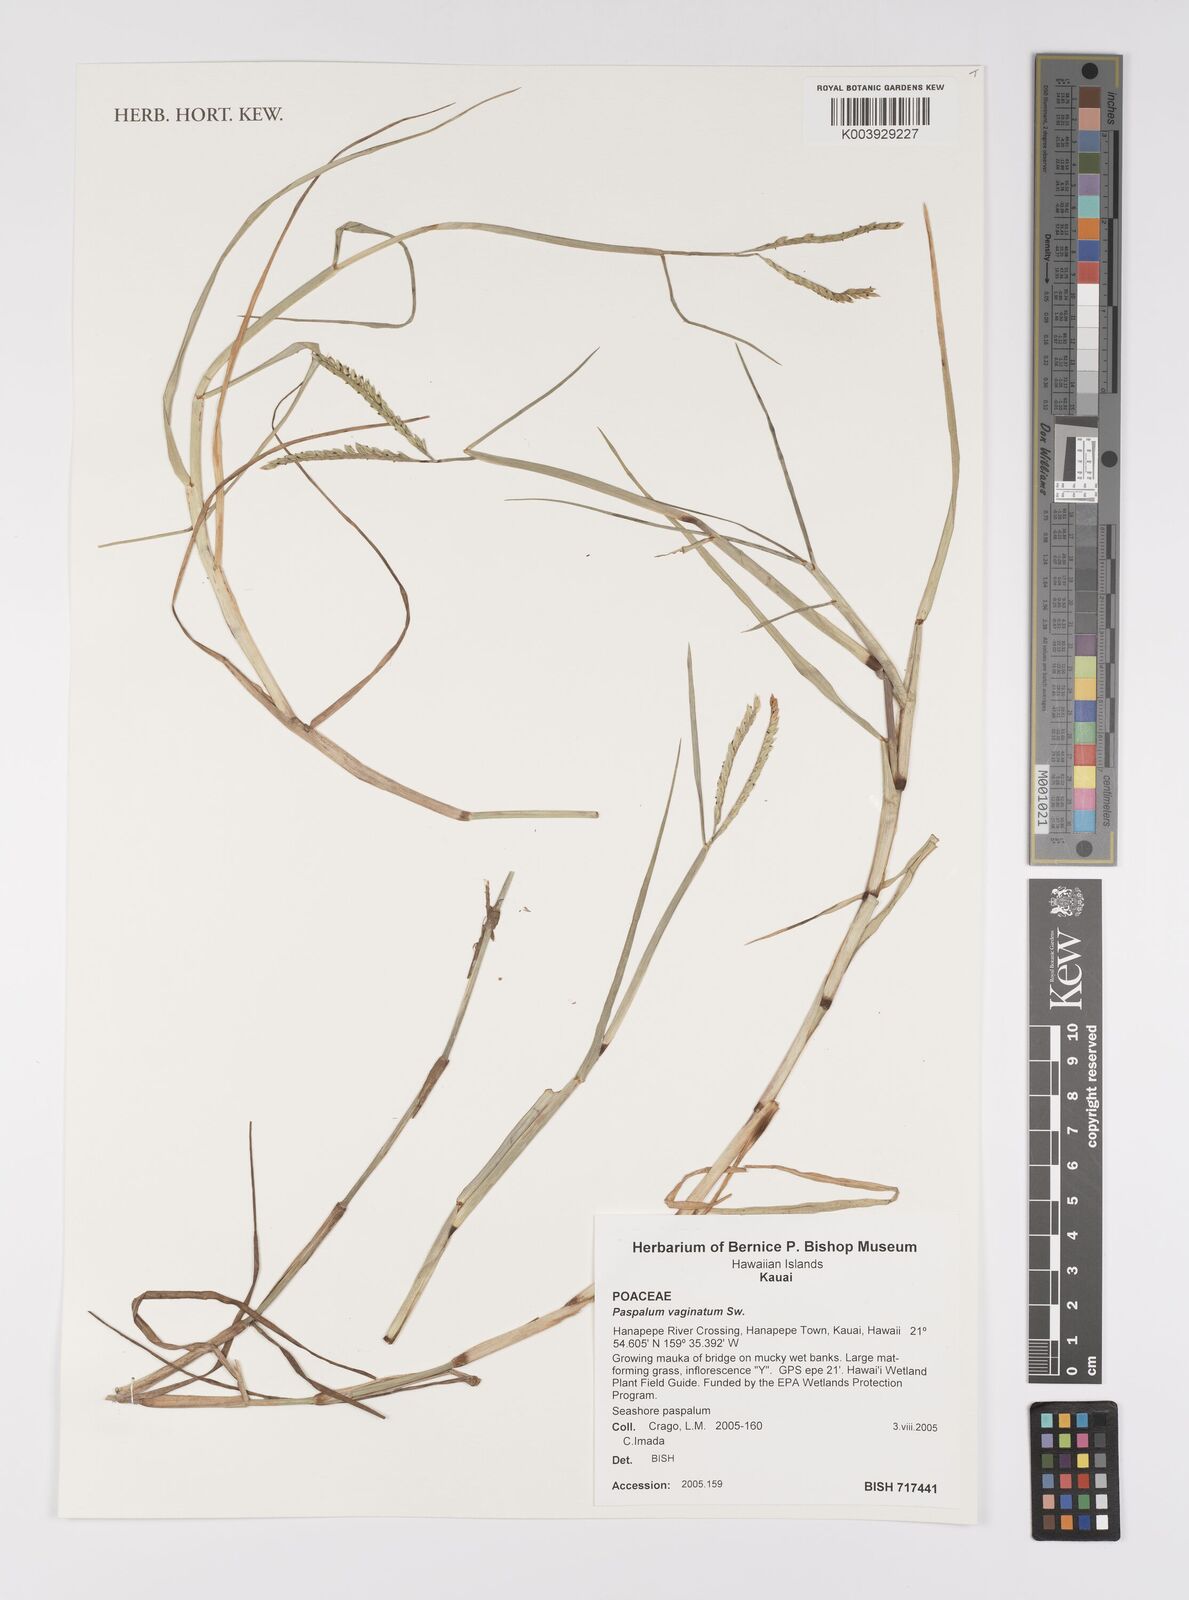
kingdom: Plantae
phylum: Tracheophyta
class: Liliopsida
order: Poales
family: Poaceae
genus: Paspalum
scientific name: Paspalum vaginatum
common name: Seashore paspalum
